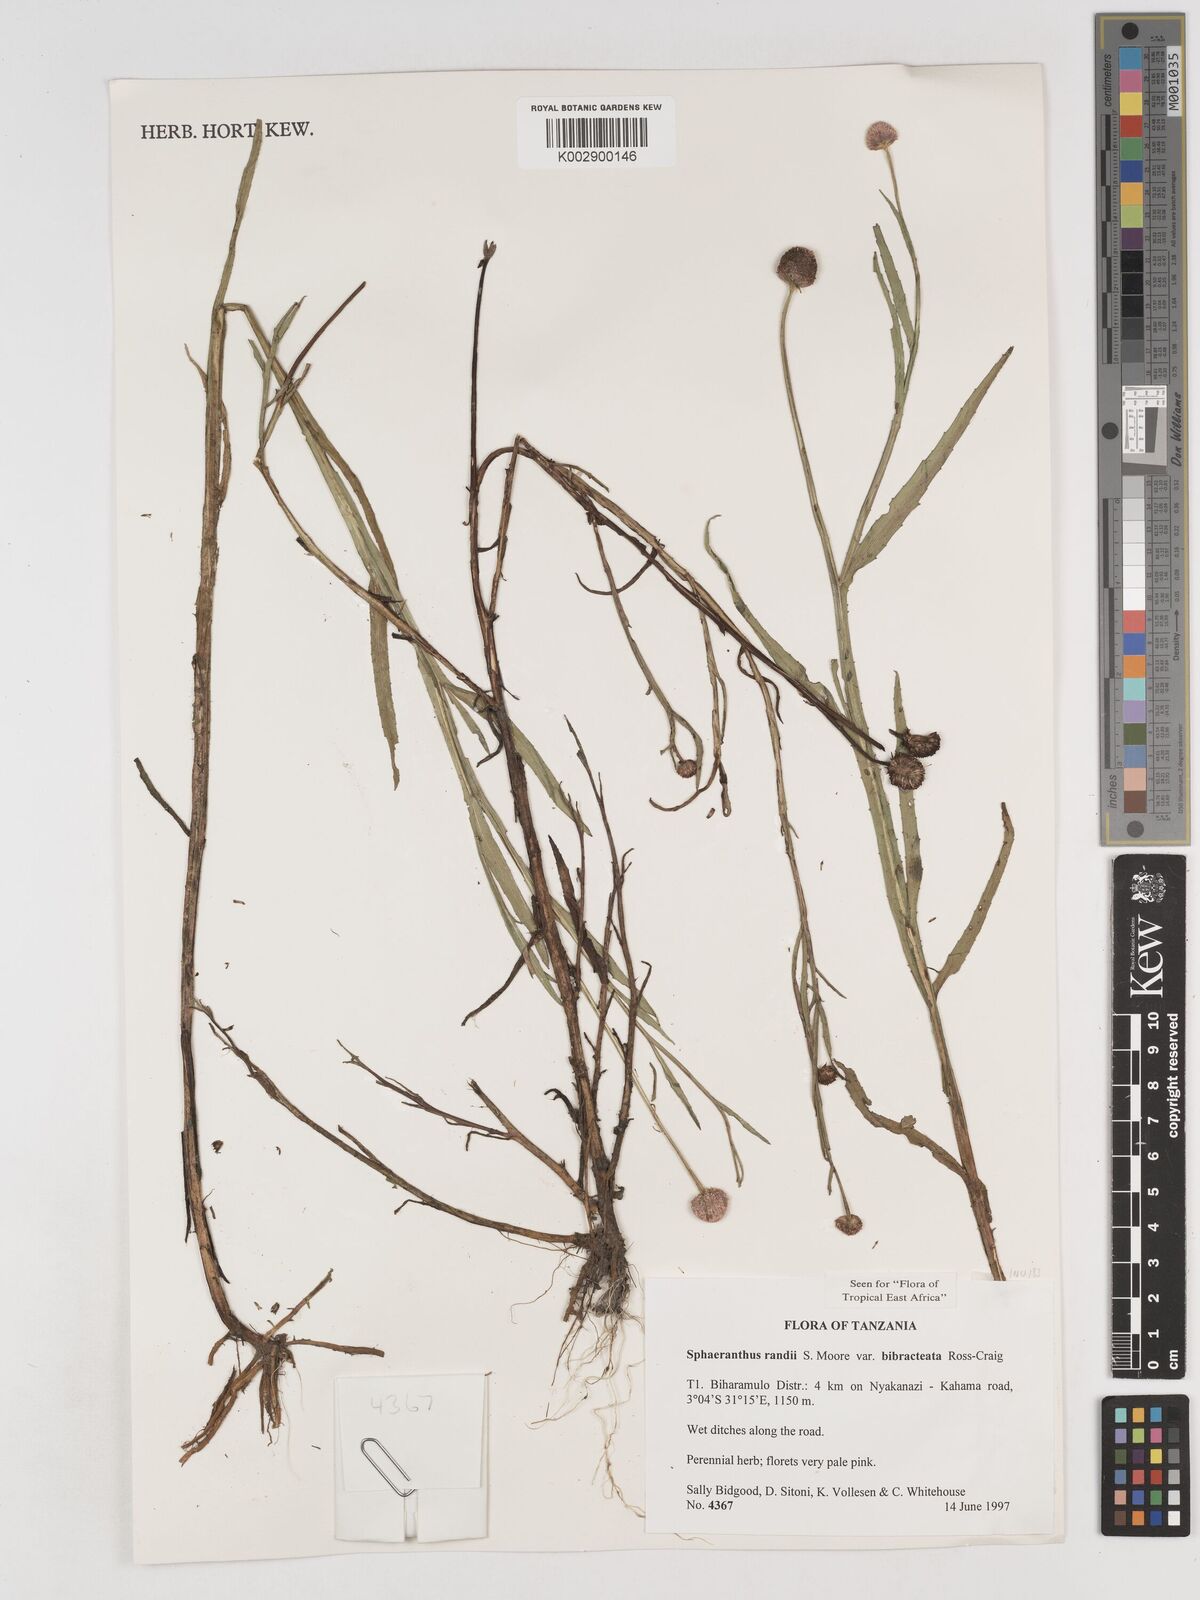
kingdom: Plantae
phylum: Tracheophyta
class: Magnoliopsida
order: Asterales
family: Asteraceae
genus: Sphaeranthus
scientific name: Sphaeranthus randii
